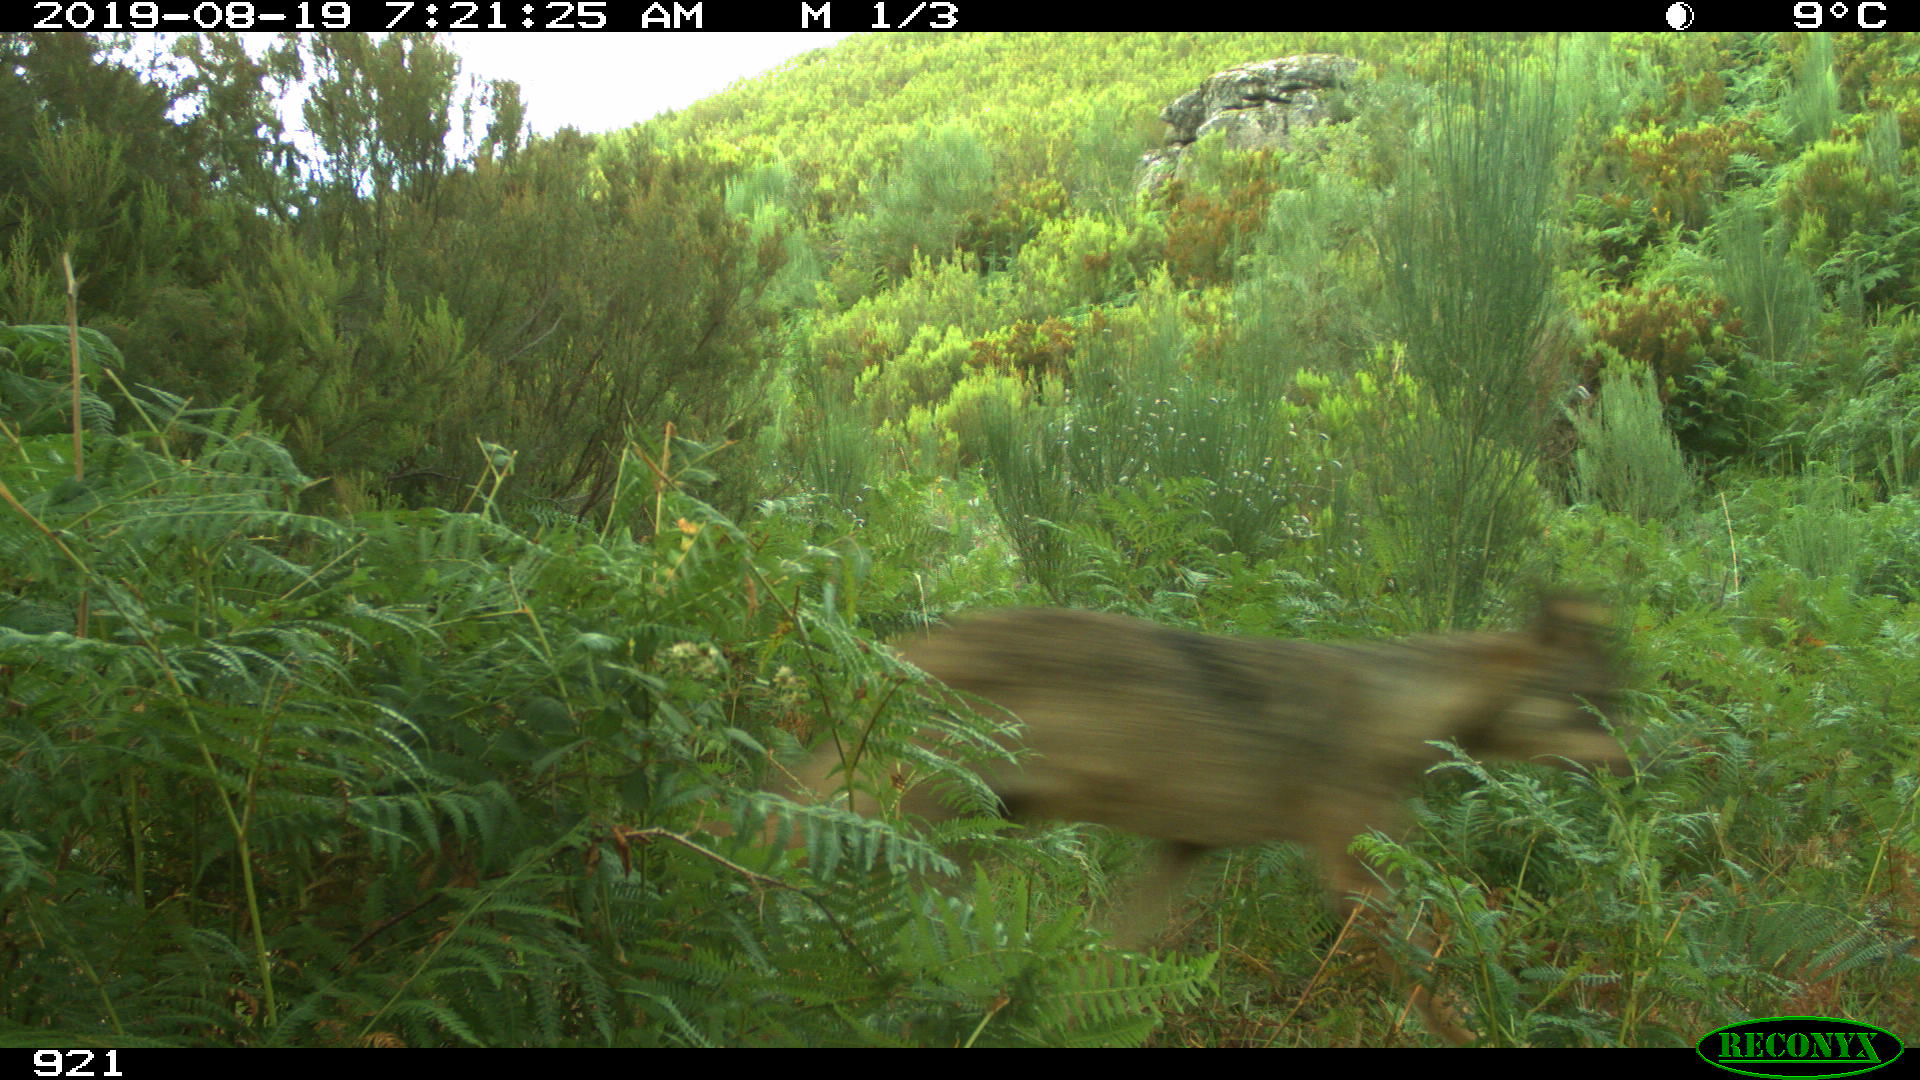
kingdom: Animalia
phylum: Chordata
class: Mammalia
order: Carnivora
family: Canidae
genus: Canis
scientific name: Canis lupus
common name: Gray wolf
